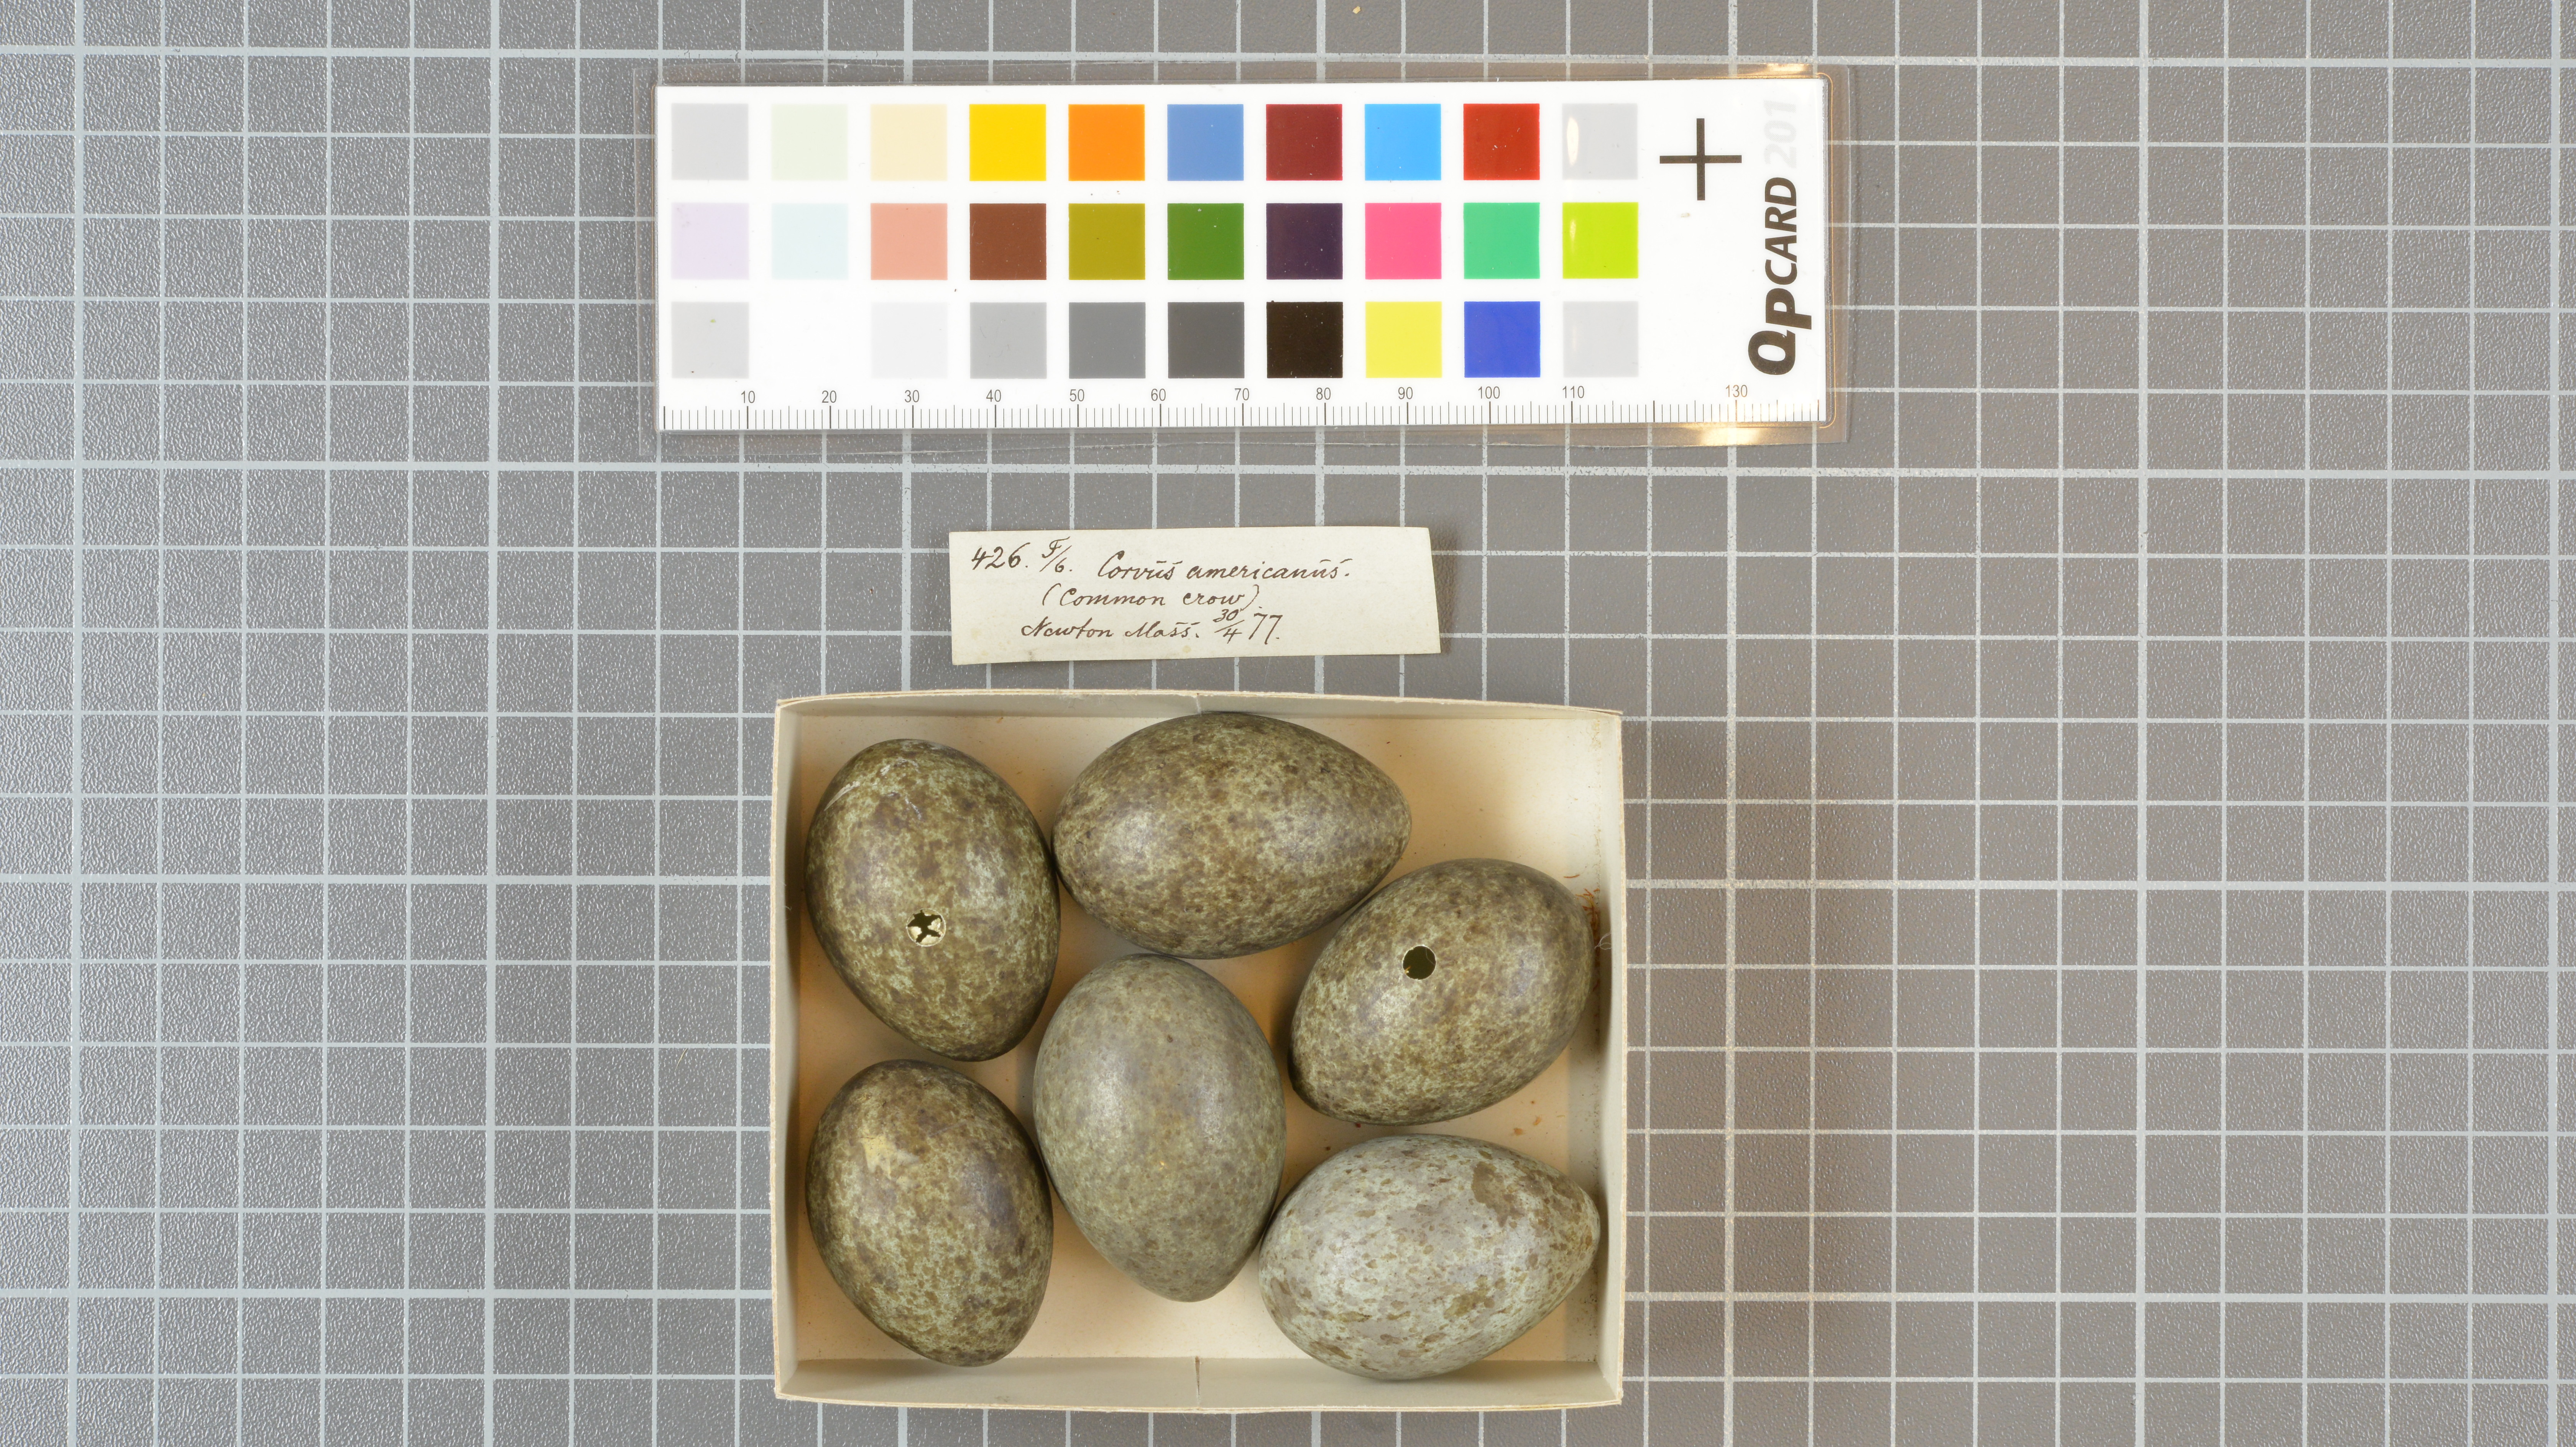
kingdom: Animalia
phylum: Chordata
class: Aves
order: Passeriformes
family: Corvidae
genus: Corvus
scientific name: Corvus brachyrhynchos
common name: American crow
